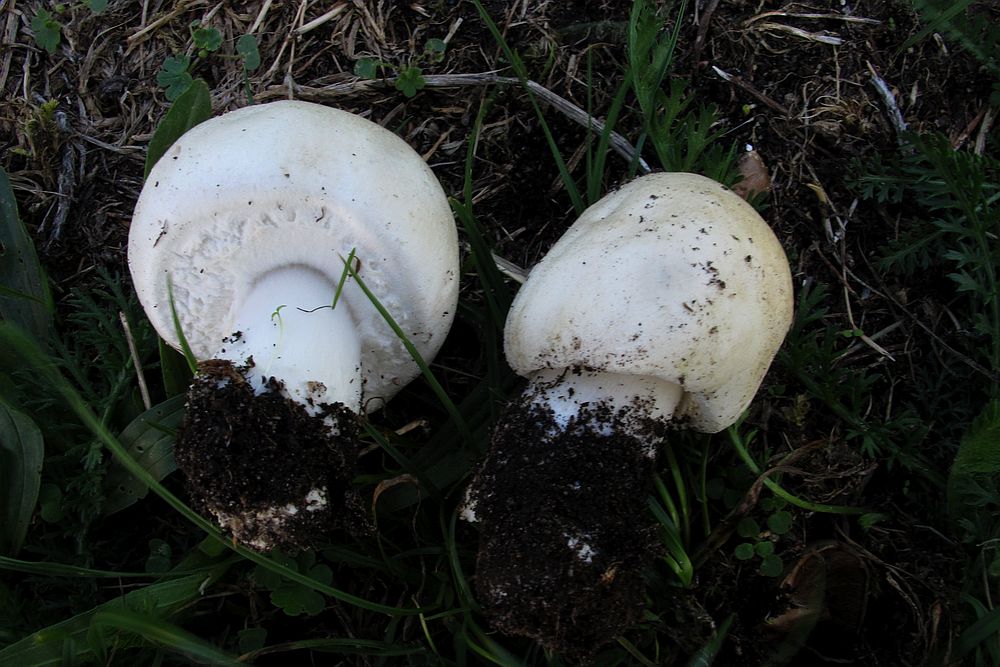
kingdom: Fungi
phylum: Basidiomycota
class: Agaricomycetes
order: Agaricales
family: Agaricaceae
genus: Agaricus
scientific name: Agaricus arvensis
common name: ager-champignon
